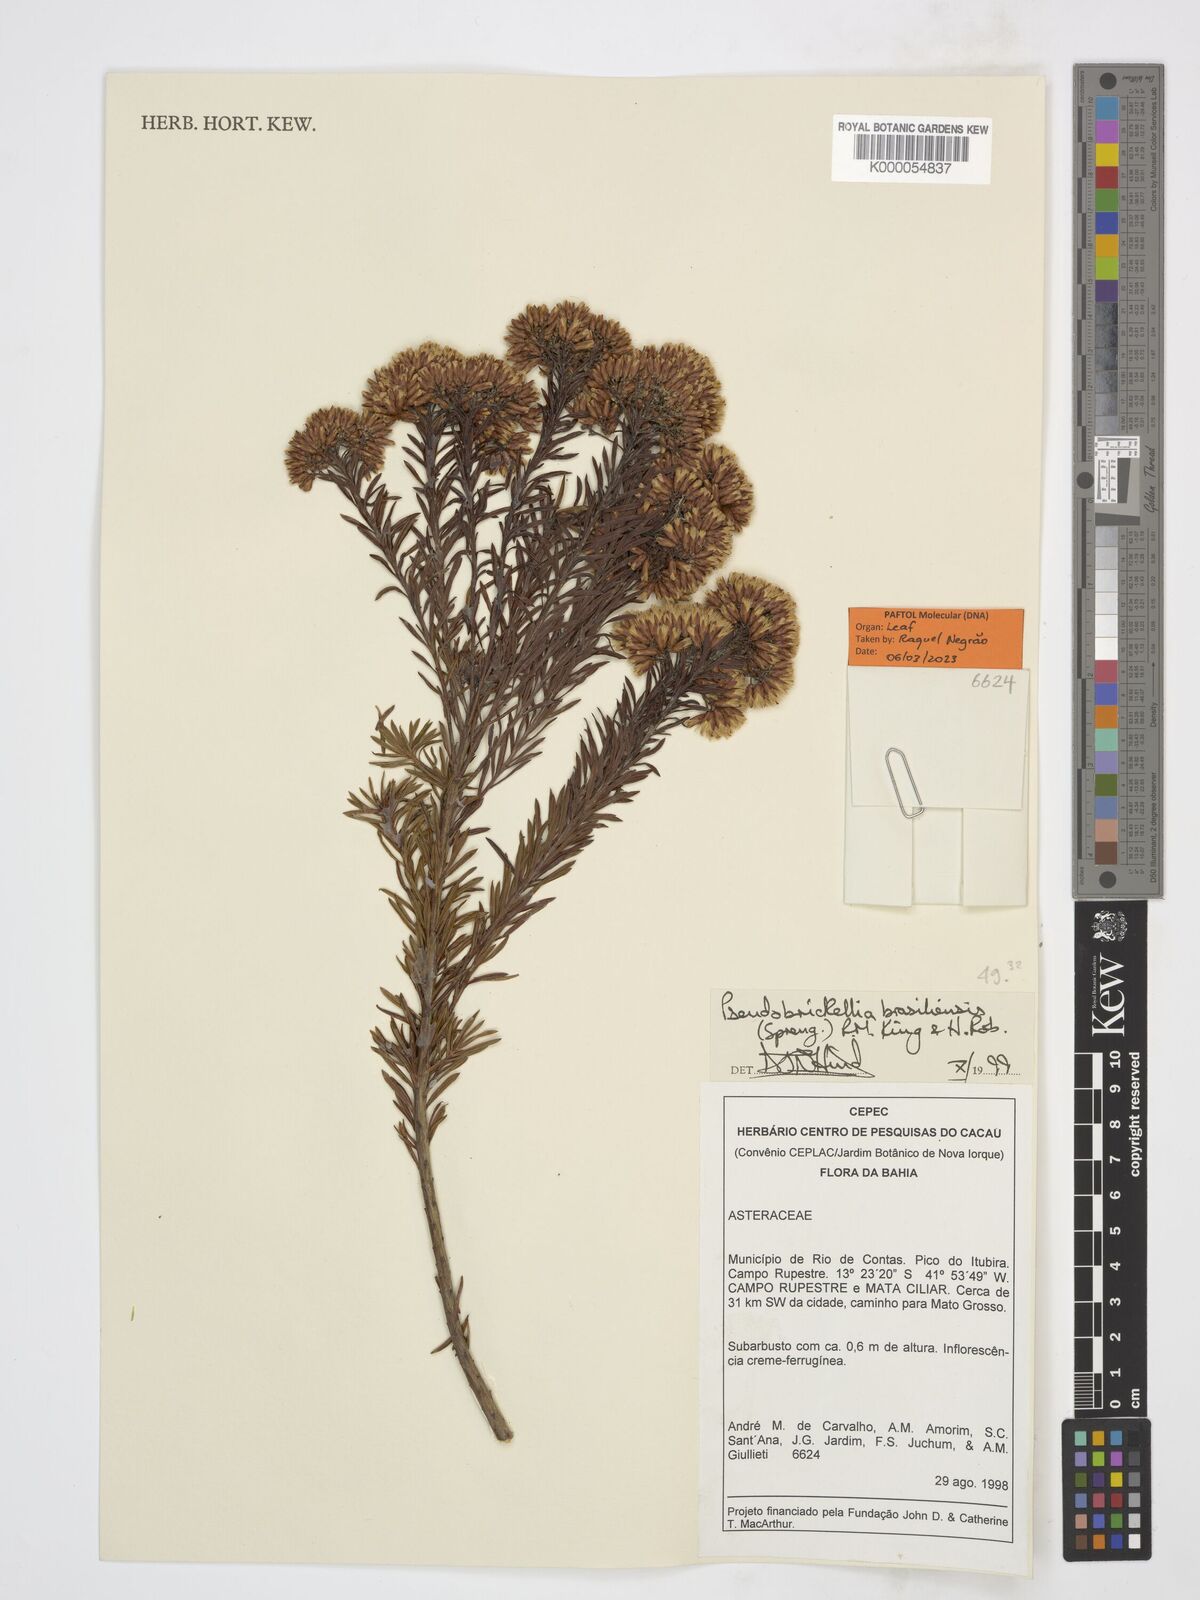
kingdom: Plantae
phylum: Tracheophyta
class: Magnoliopsida
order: Asterales
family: Asteraceae
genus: Pseudobrickellia
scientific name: Pseudobrickellia brasiliensis
